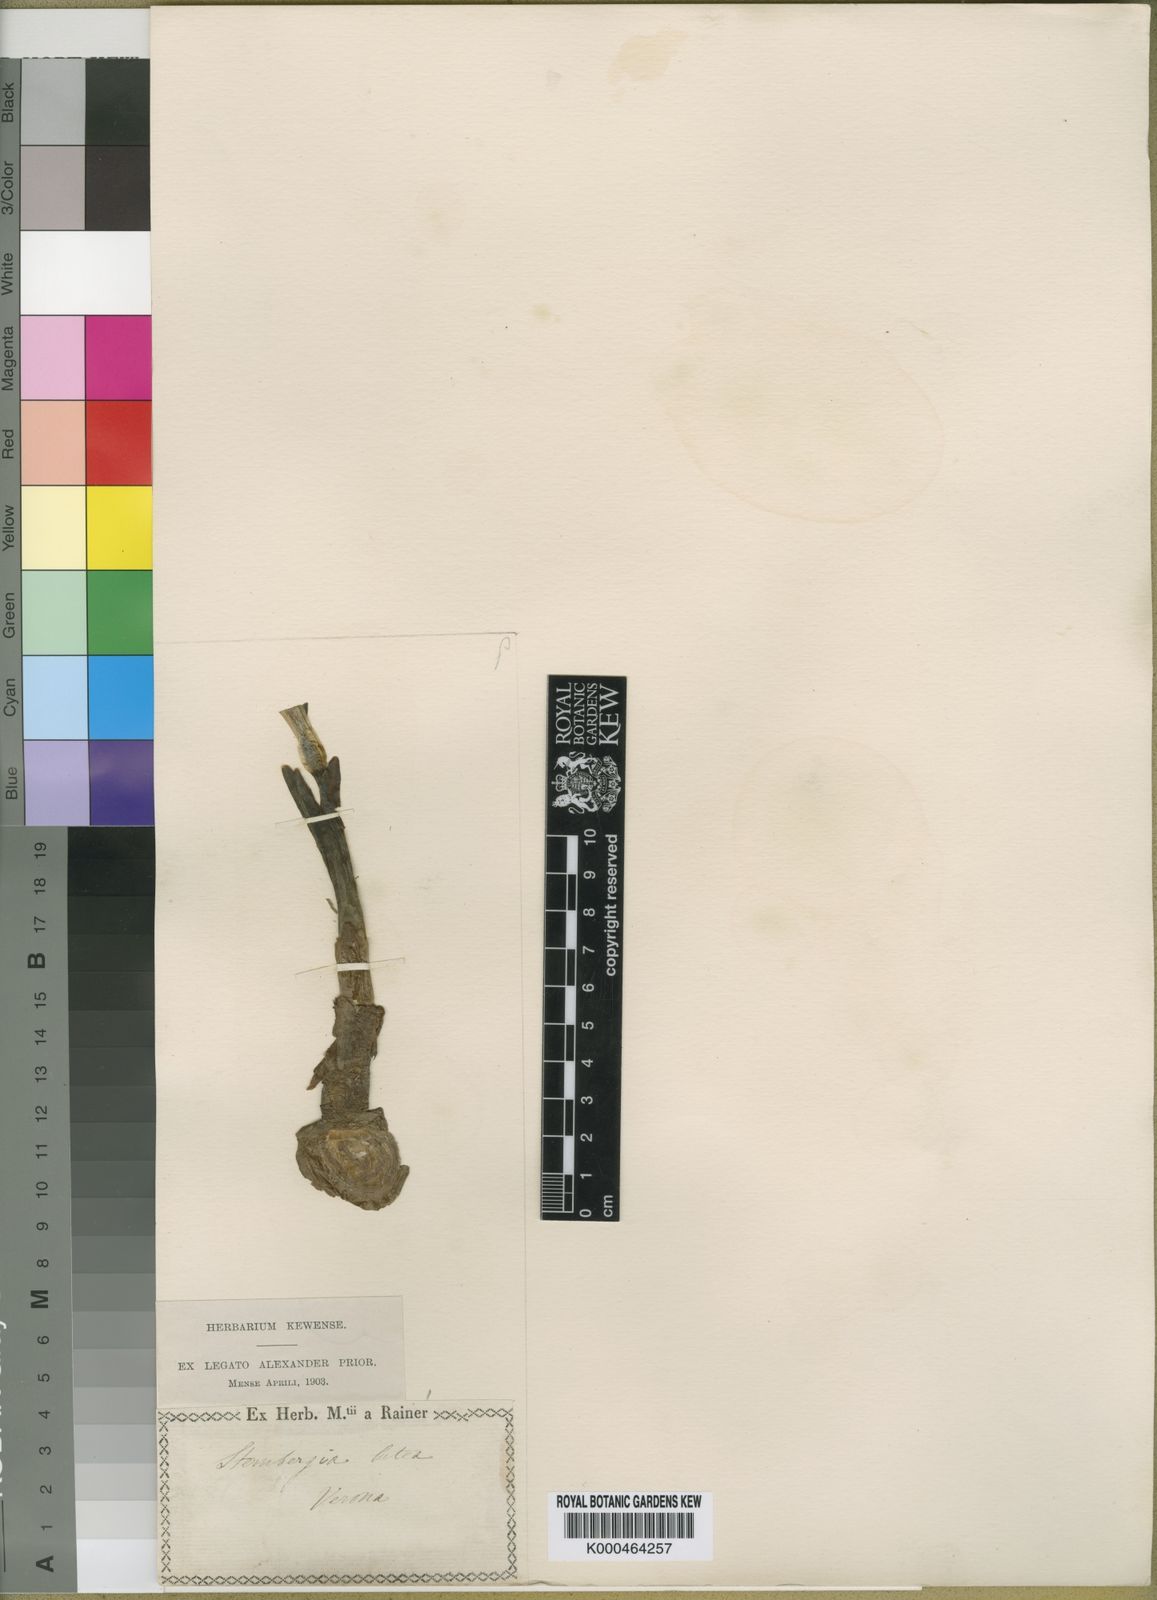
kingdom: Plantae
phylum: Tracheophyta
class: Liliopsida
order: Asparagales
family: Amaryllidaceae
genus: Sternbergia
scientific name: Sternbergia
